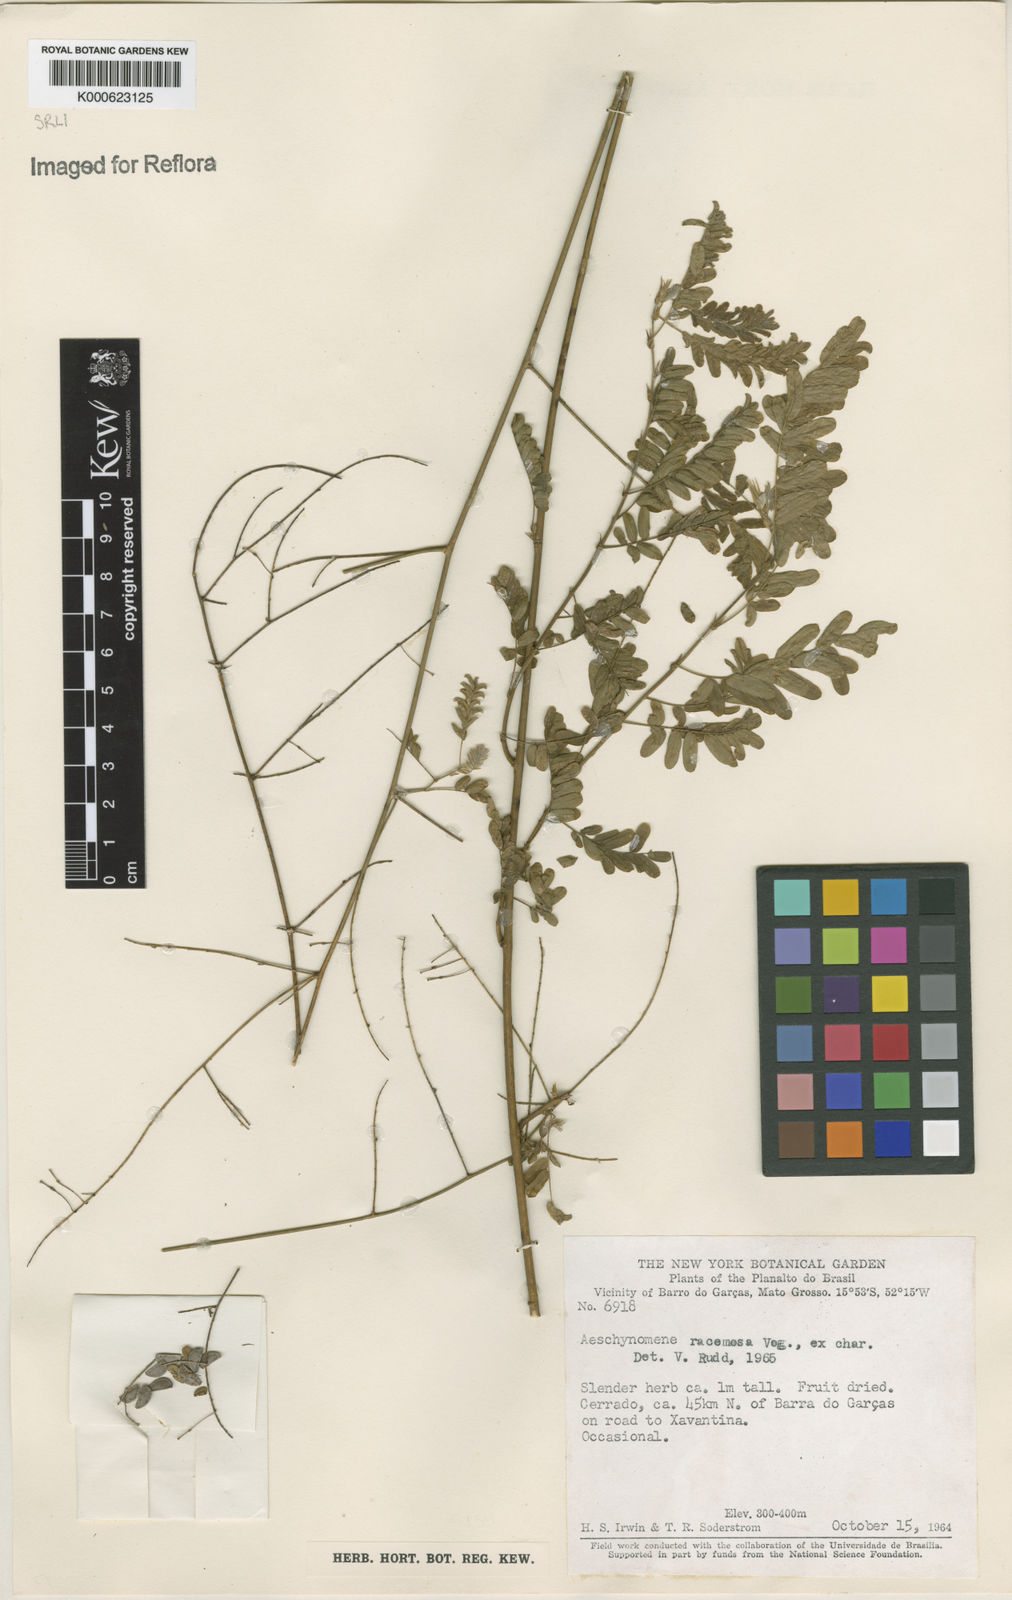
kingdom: Plantae
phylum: Tracheophyta
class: Magnoliopsida
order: Fabales
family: Fabaceae
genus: Ctenodon
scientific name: Ctenodon racemosus
